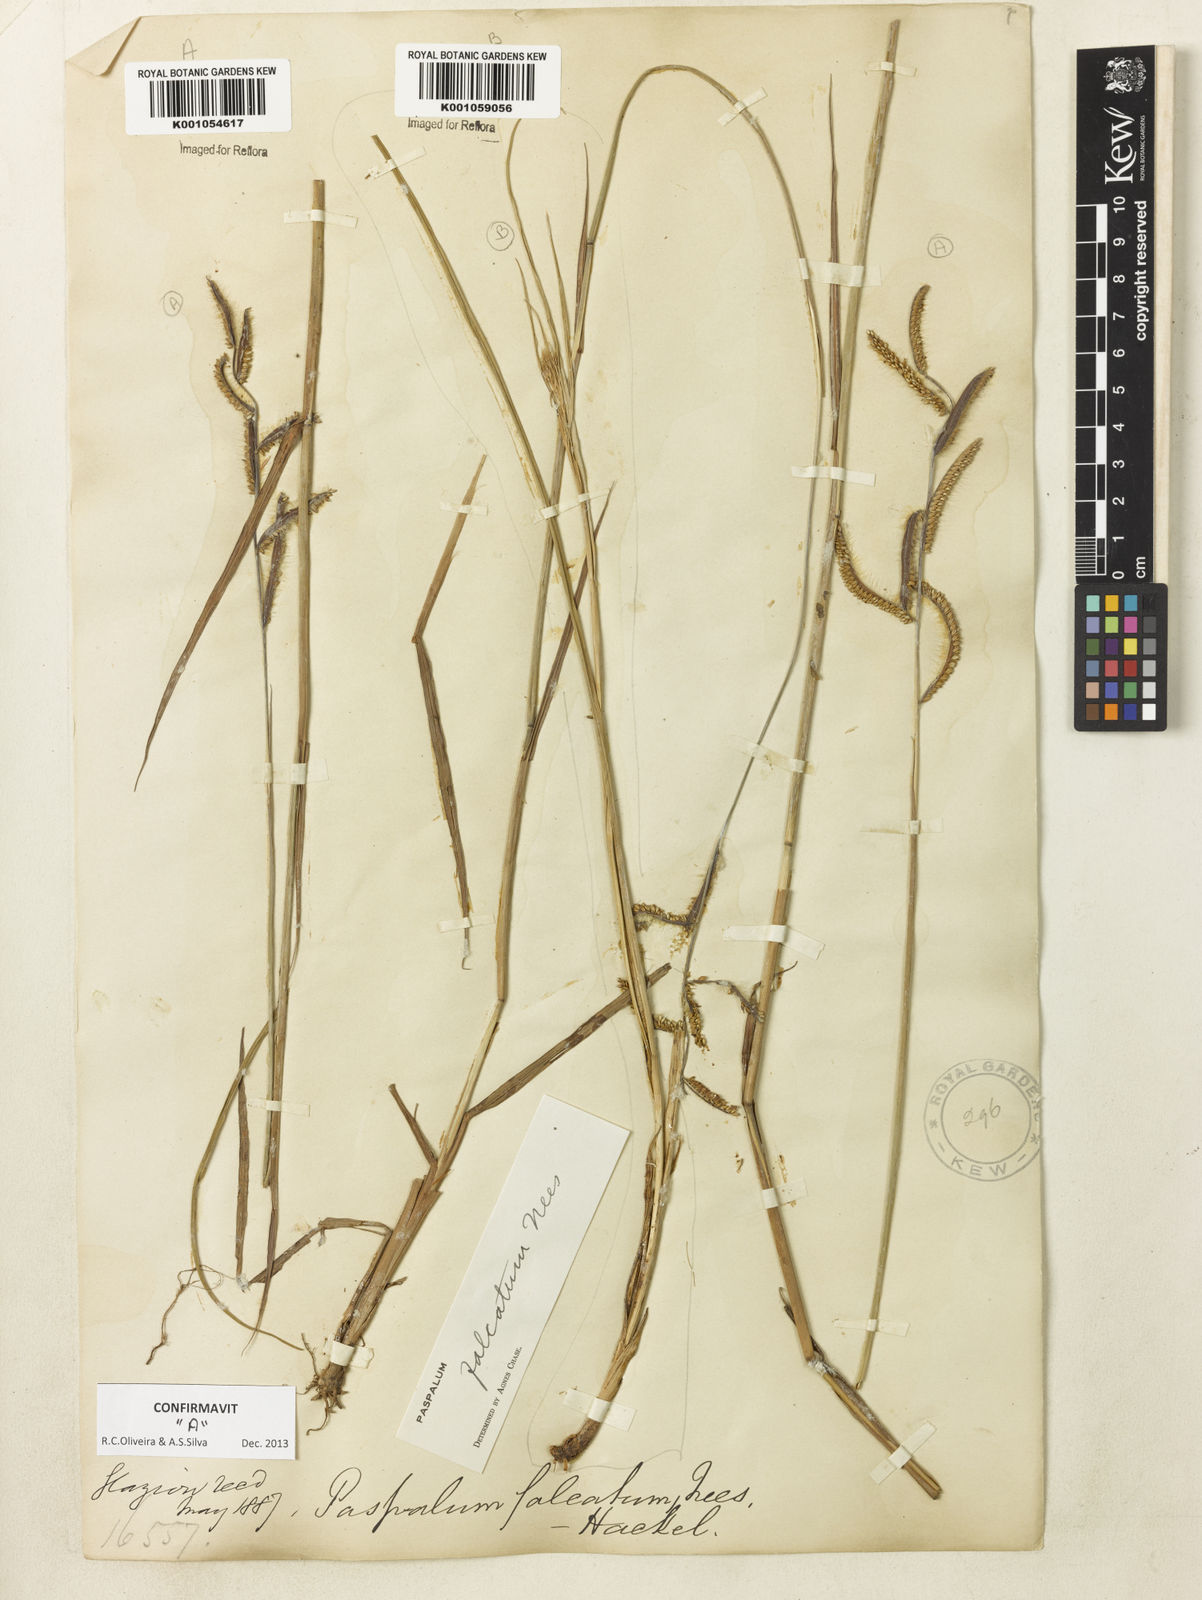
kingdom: Plantae
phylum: Tracheophyta
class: Liliopsida
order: Poales
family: Poaceae
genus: Paspalum
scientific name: Paspalum falcatum
